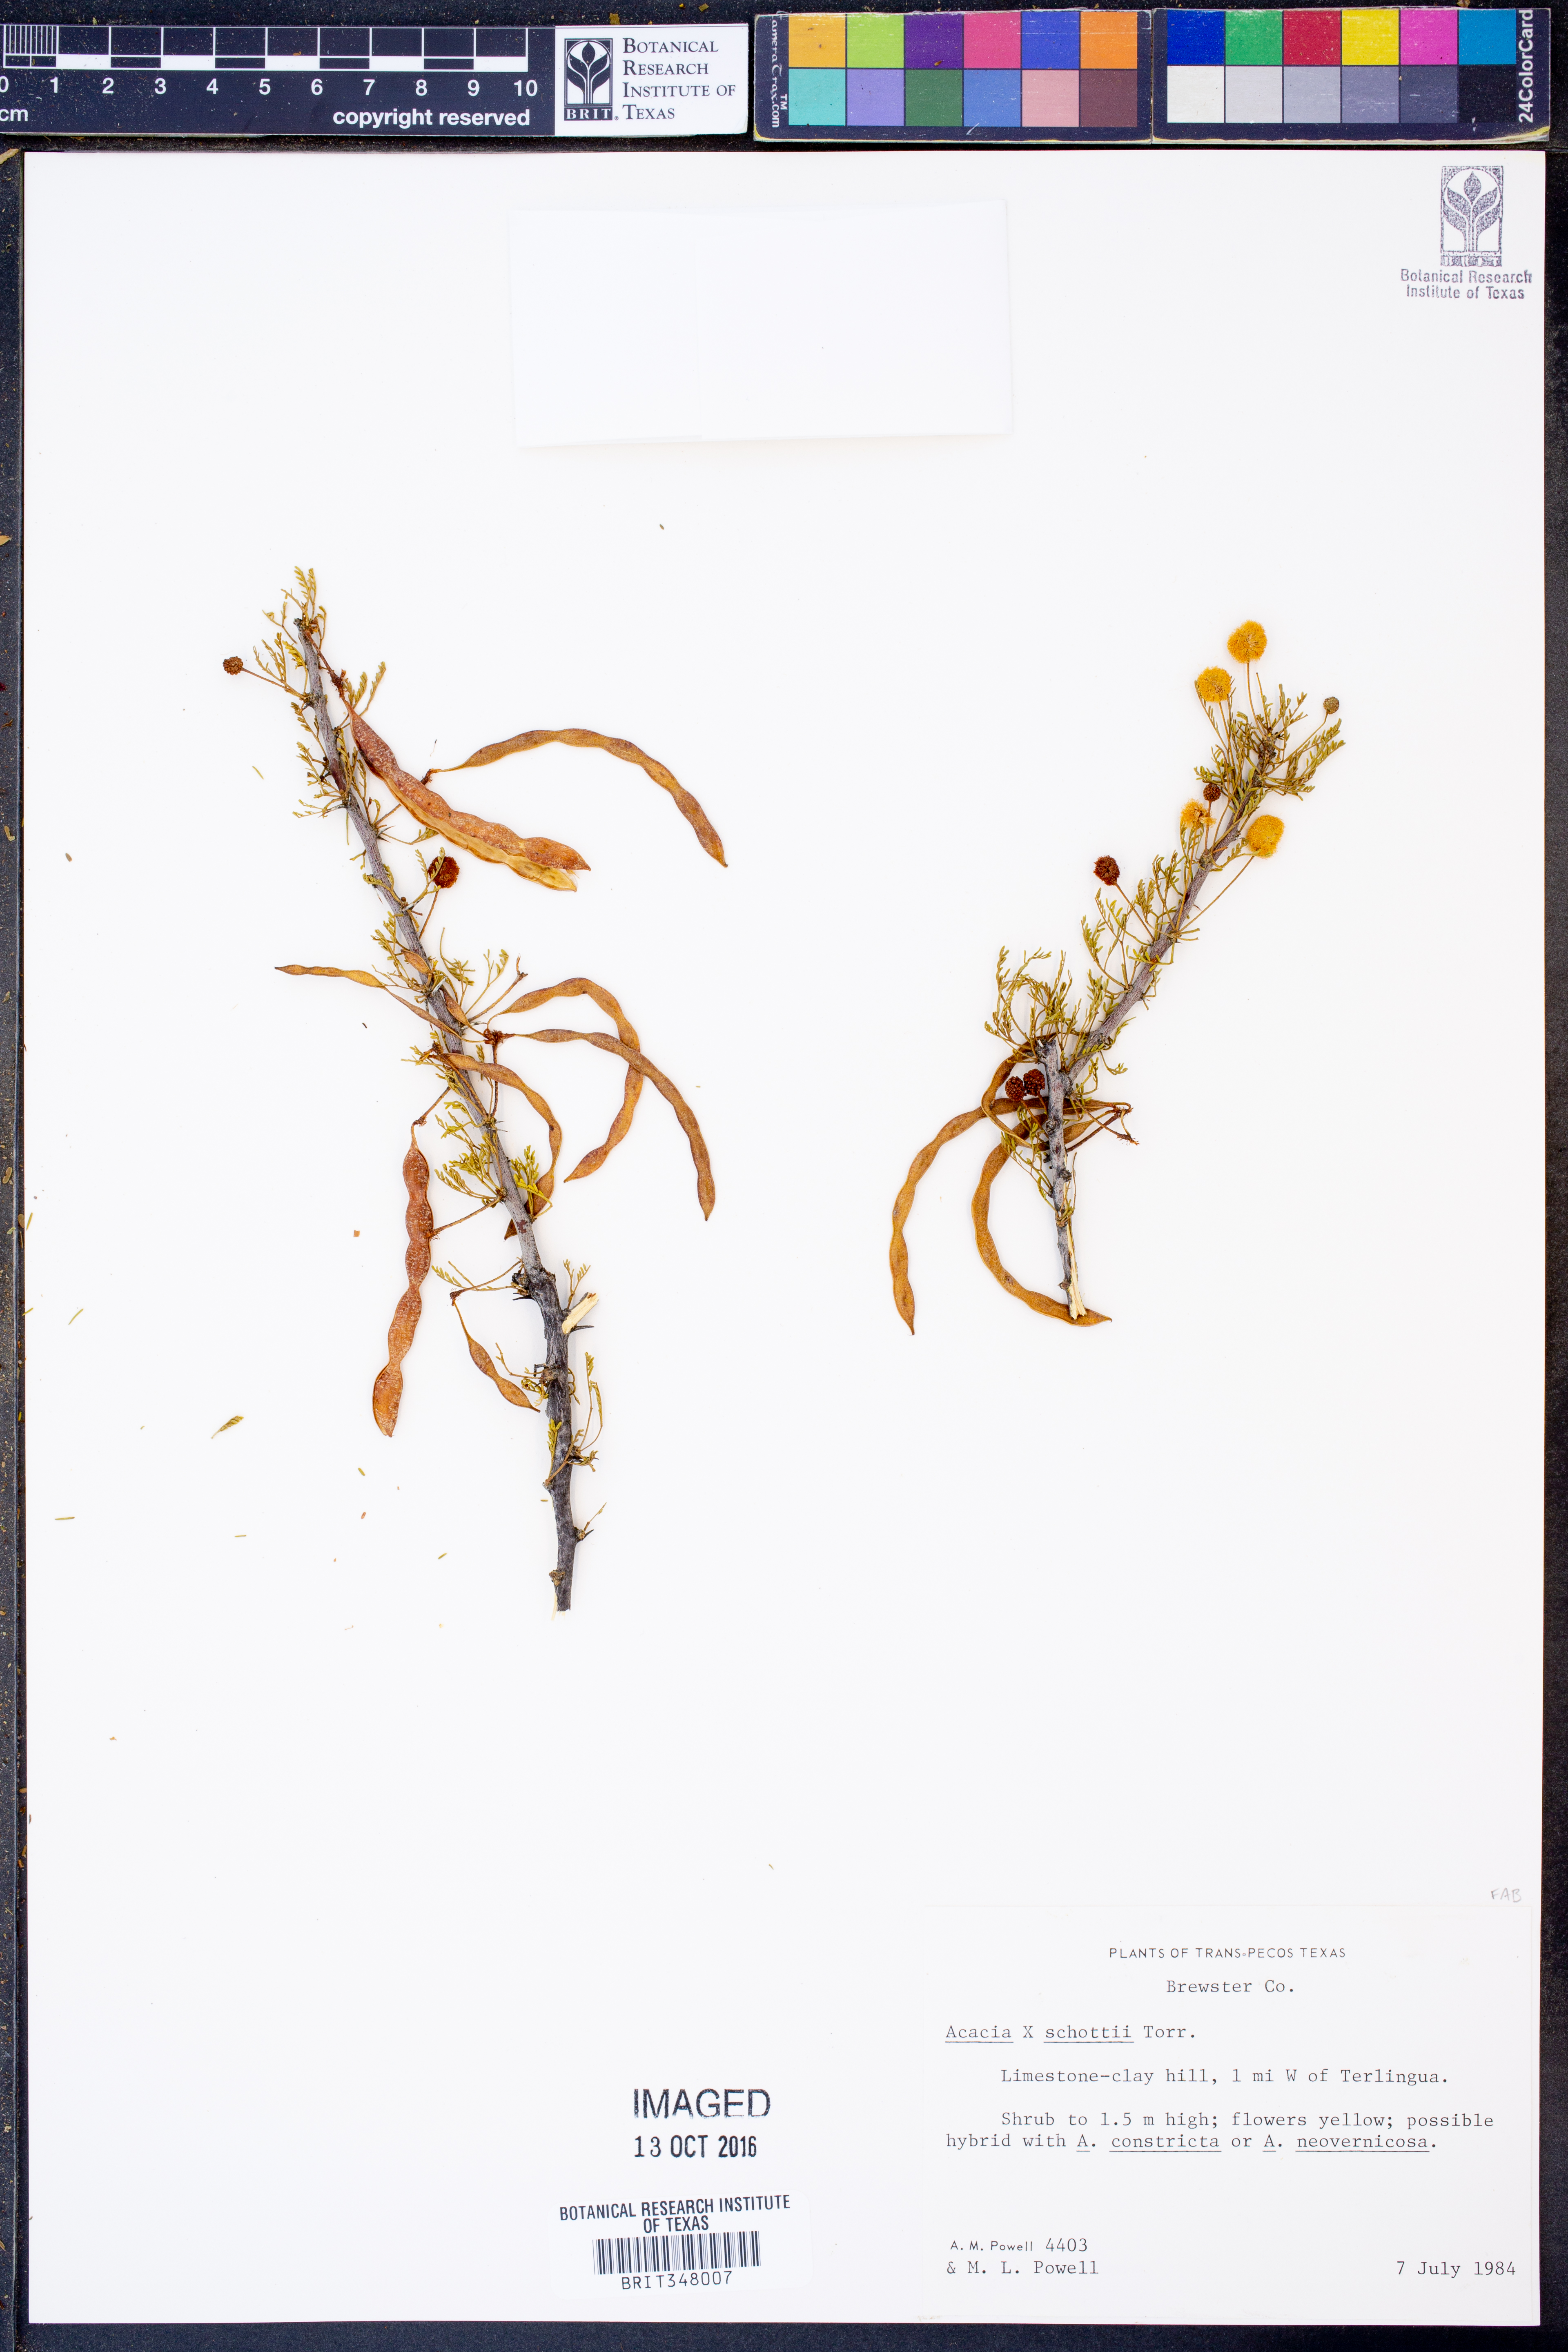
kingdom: Plantae
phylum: Tracheophyta
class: Magnoliopsida
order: Fabales
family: Fabaceae
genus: Vachellia
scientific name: Vachellia schottii
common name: Schott acacia
